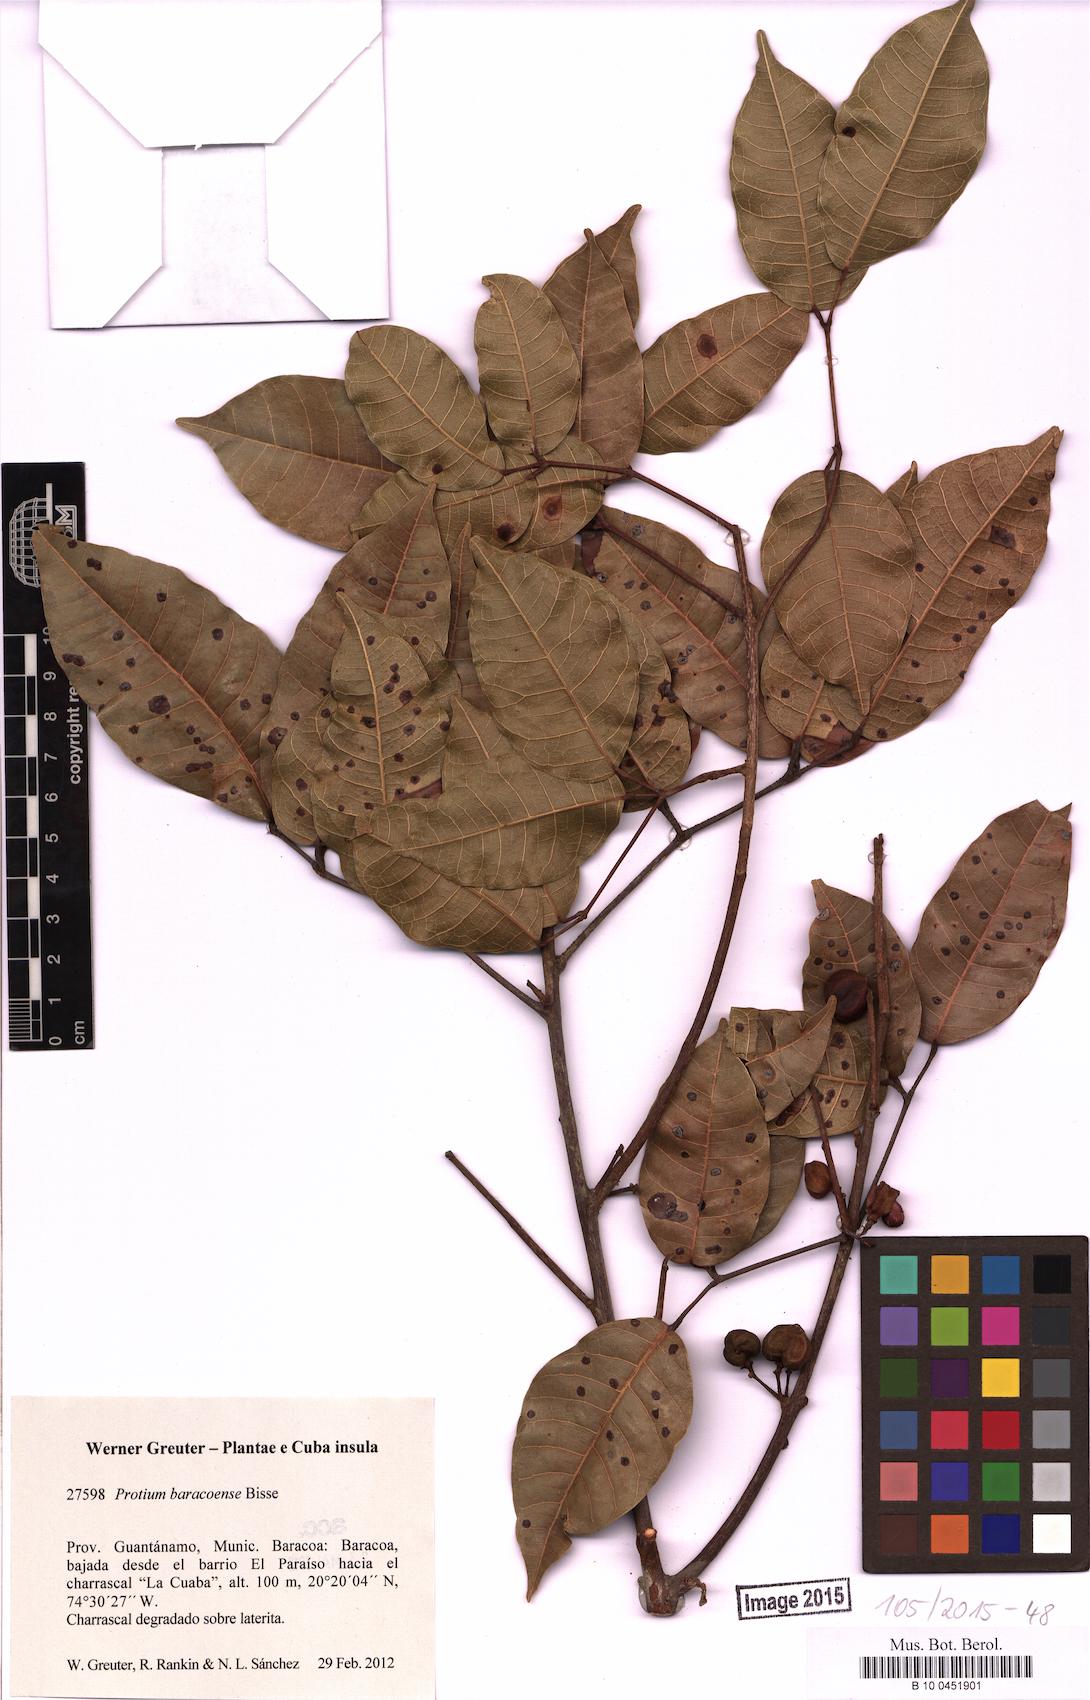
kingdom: Plantae
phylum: Tracheophyta
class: Magnoliopsida
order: Sapindales
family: Burseraceae
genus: Protium
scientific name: Protium baracoense
